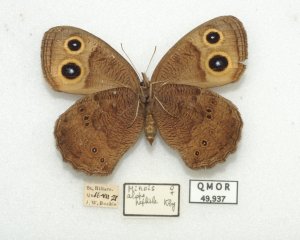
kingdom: Animalia
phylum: Arthropoda
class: Insecta
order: Lepidoptera
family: Nymphalidae
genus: Cercyonis
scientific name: Cercyonis pegala
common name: Common Wood-Nymph
